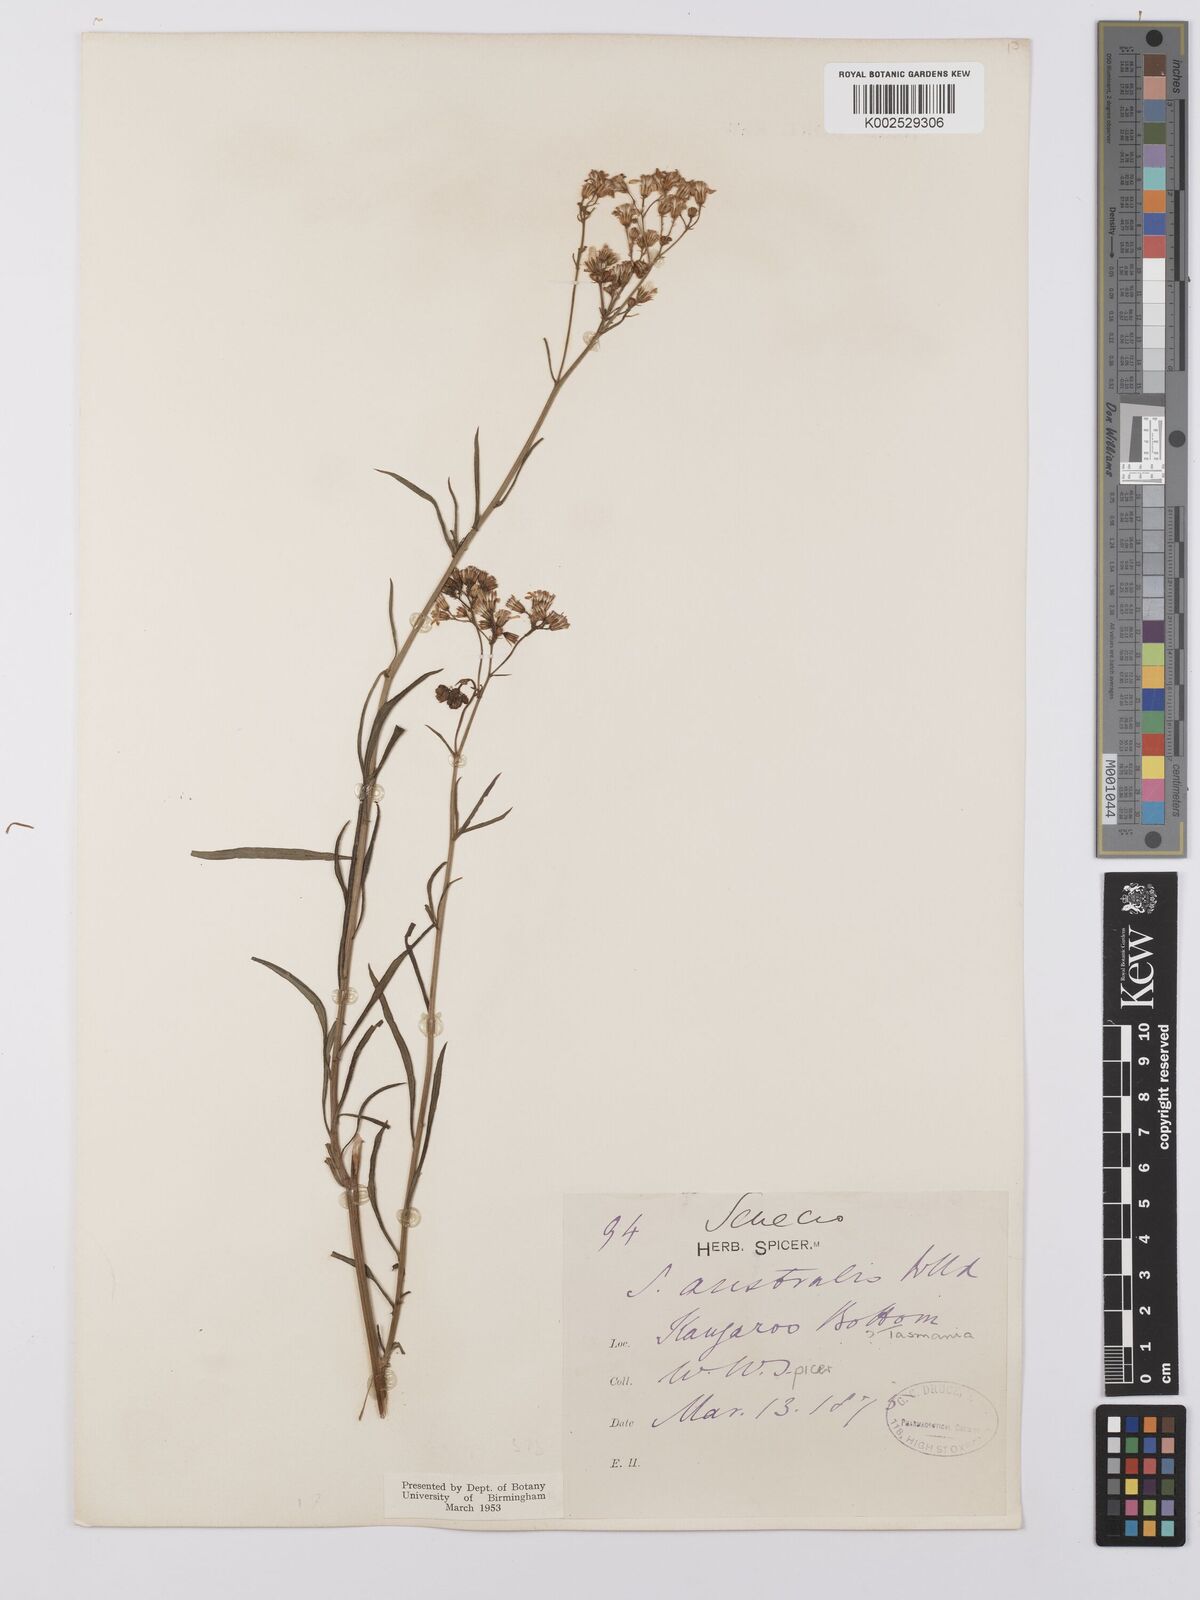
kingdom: Plantae
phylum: Tracheophyta
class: Magnoliopsida
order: Asterales
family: Asteraceae
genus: Senecio
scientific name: Senecio linearifolius
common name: Fireweed groundsel
